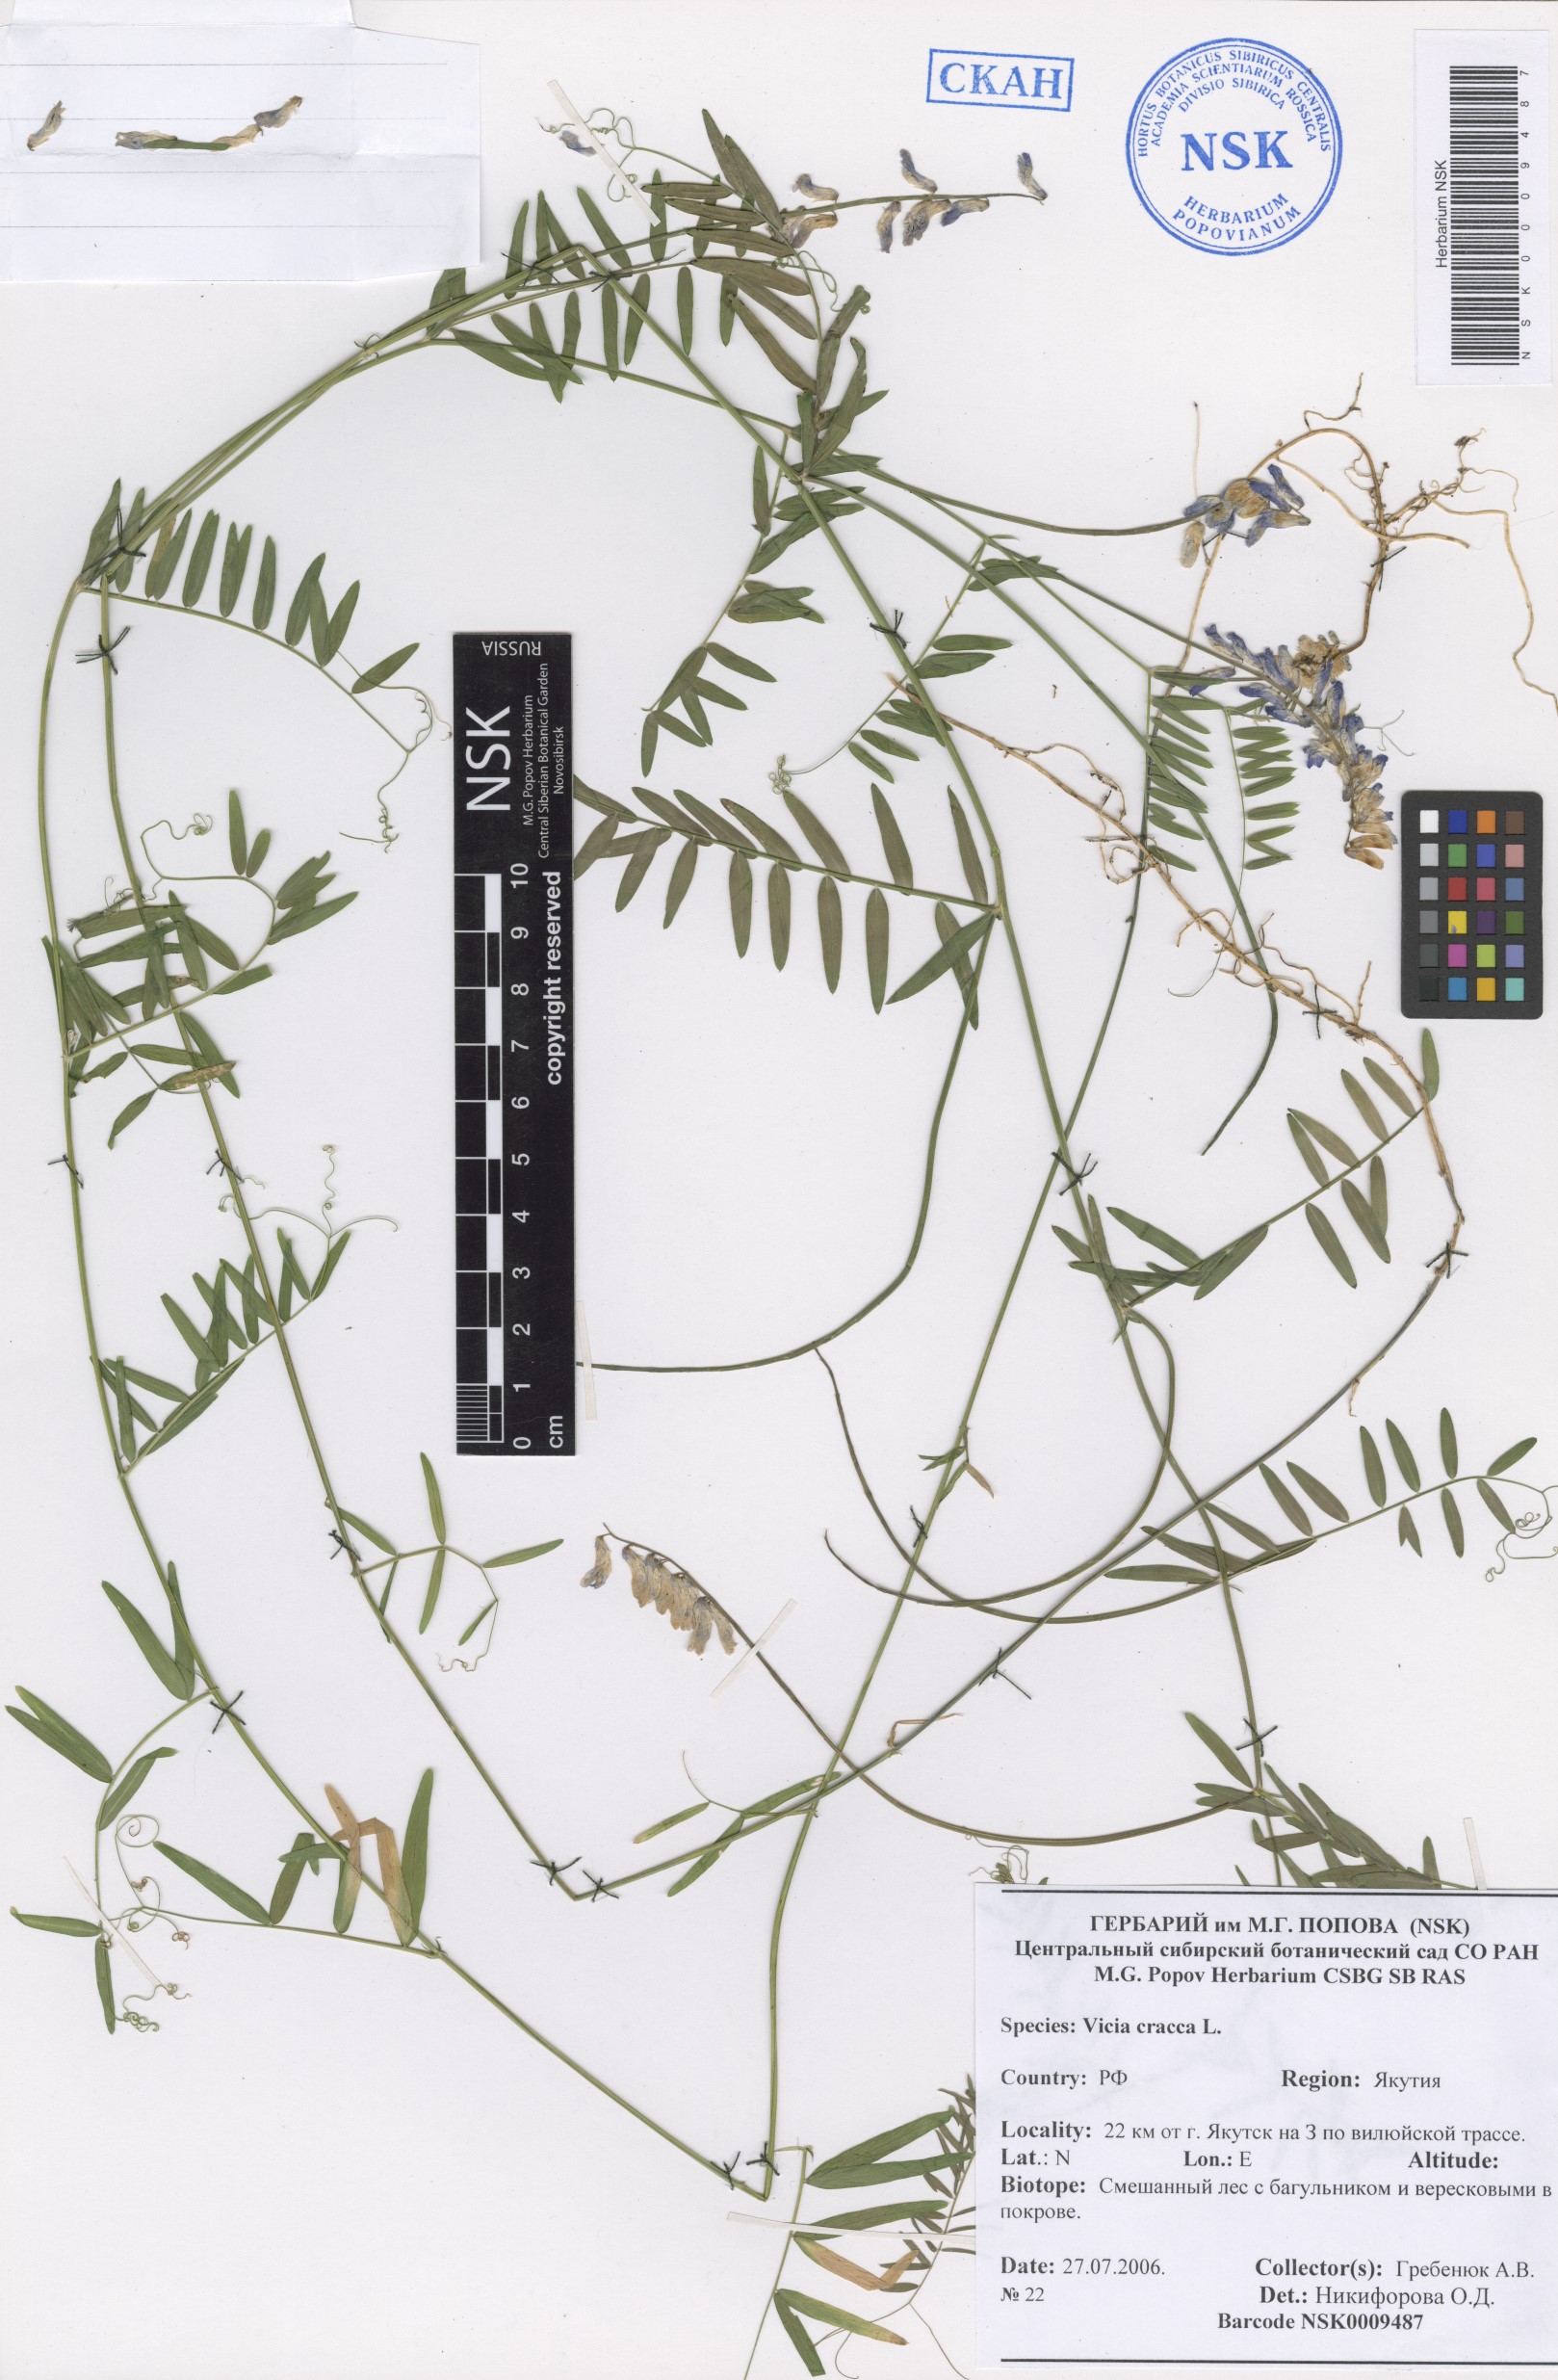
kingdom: Plantae
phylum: Tracheophyta
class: Magnoliopsida
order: Fabales
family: Fabaceae
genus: Vicia
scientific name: Vicia cracca
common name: Bird vetch
